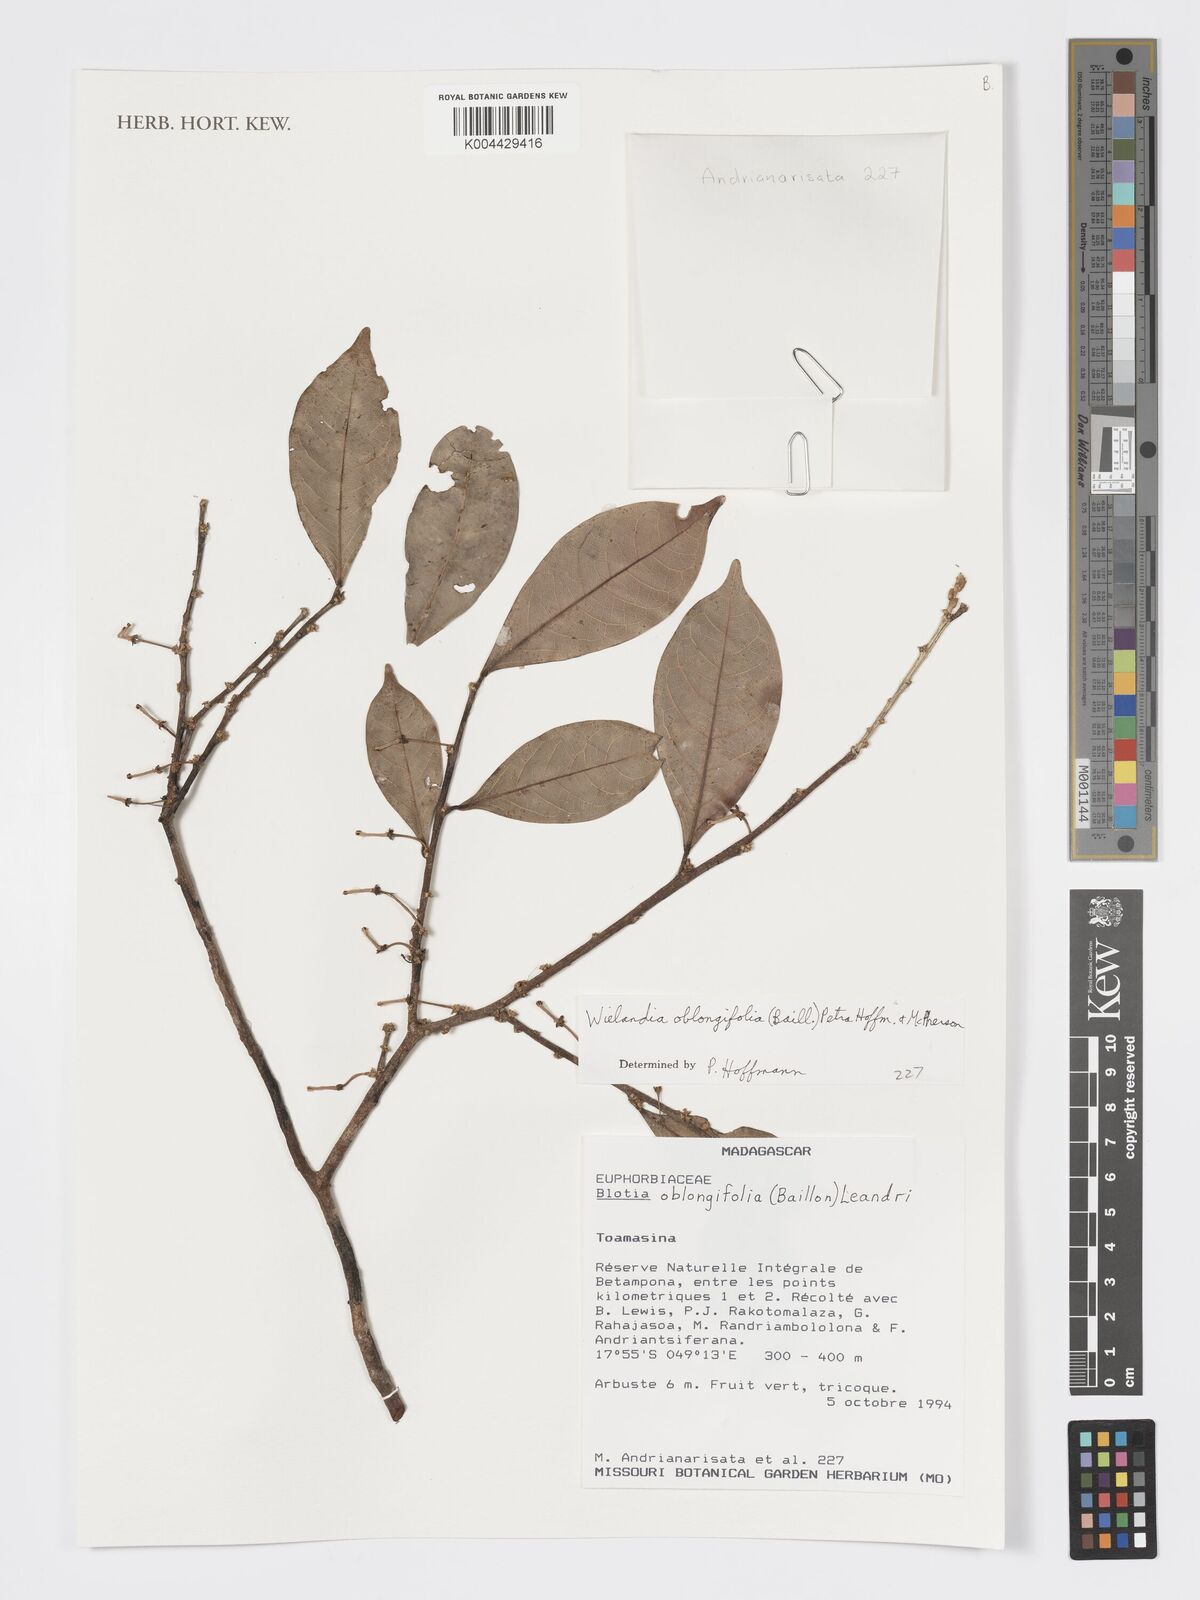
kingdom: Plantae
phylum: Tracheophyta
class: Magnoliopsida
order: Malpighiales
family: Phyllanthaceae
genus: Wielandia
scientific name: Wielandia oblongifolia
